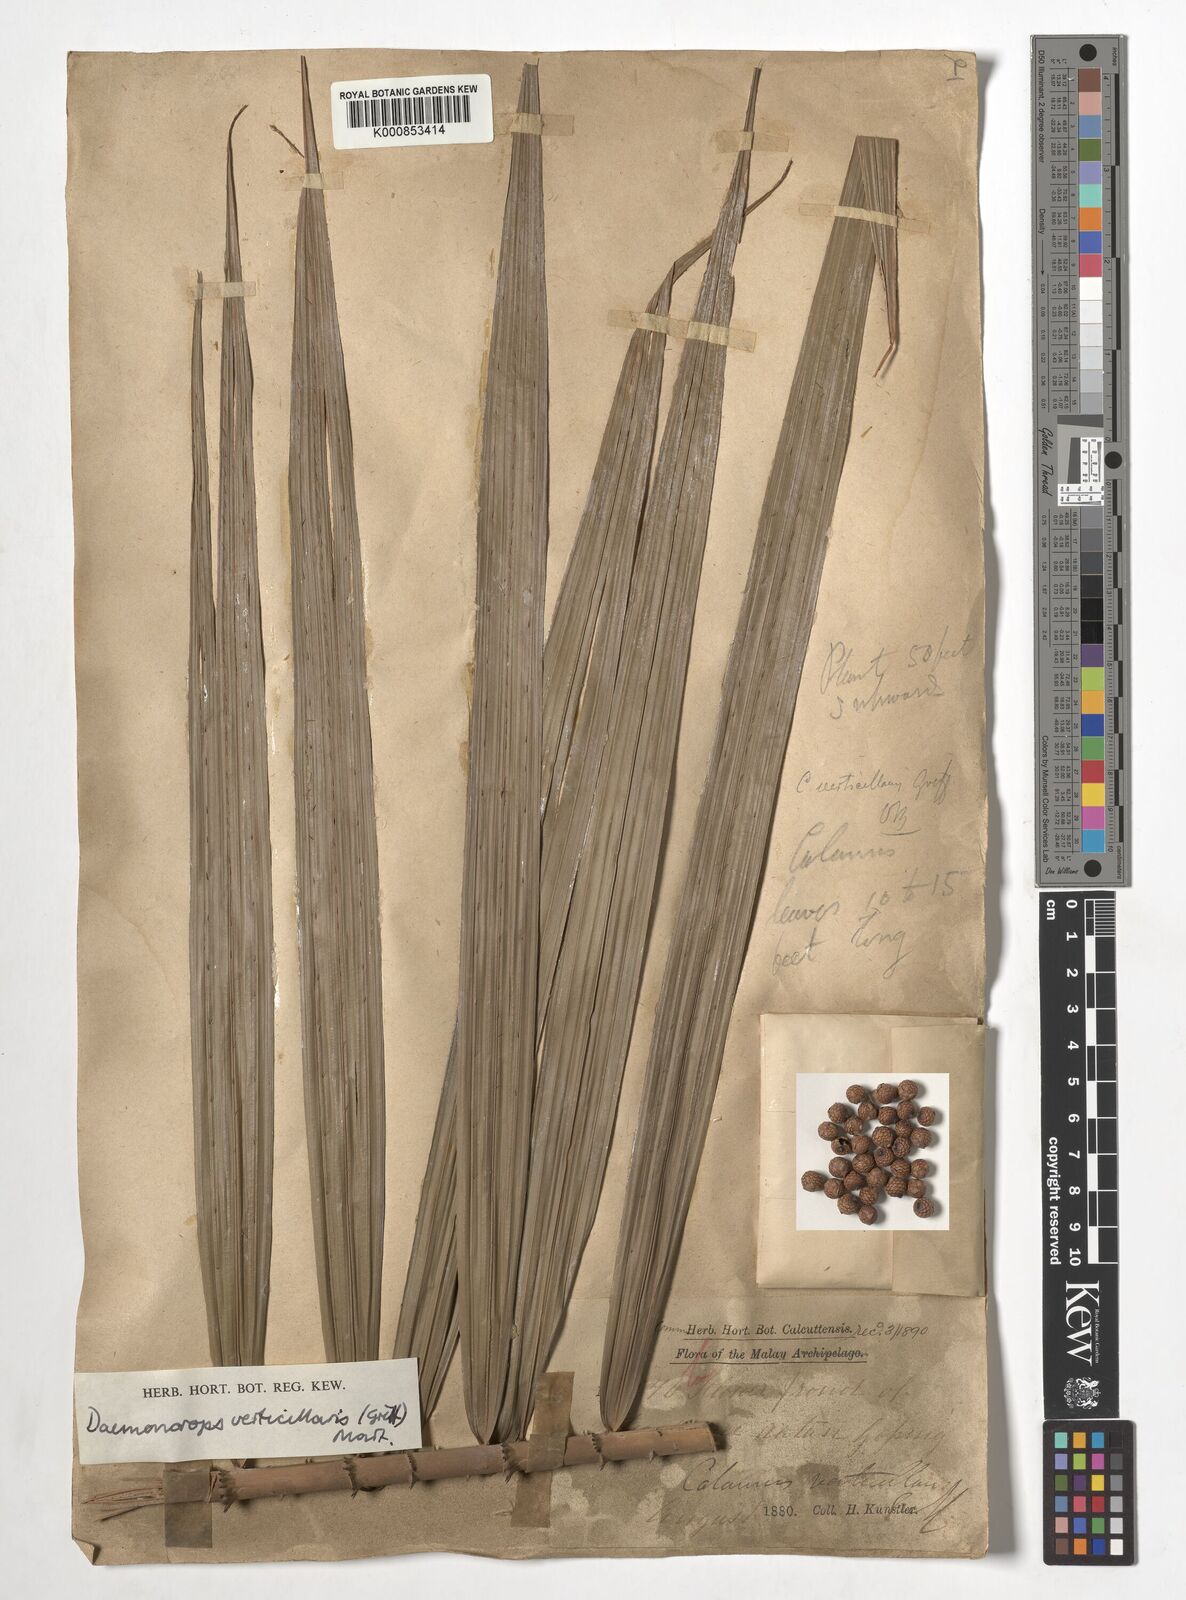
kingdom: Plantae
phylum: Tracheophyta
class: Liliopsida
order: Arecales
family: Arecaceae
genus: Calamus
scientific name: Calamus verticillaris
